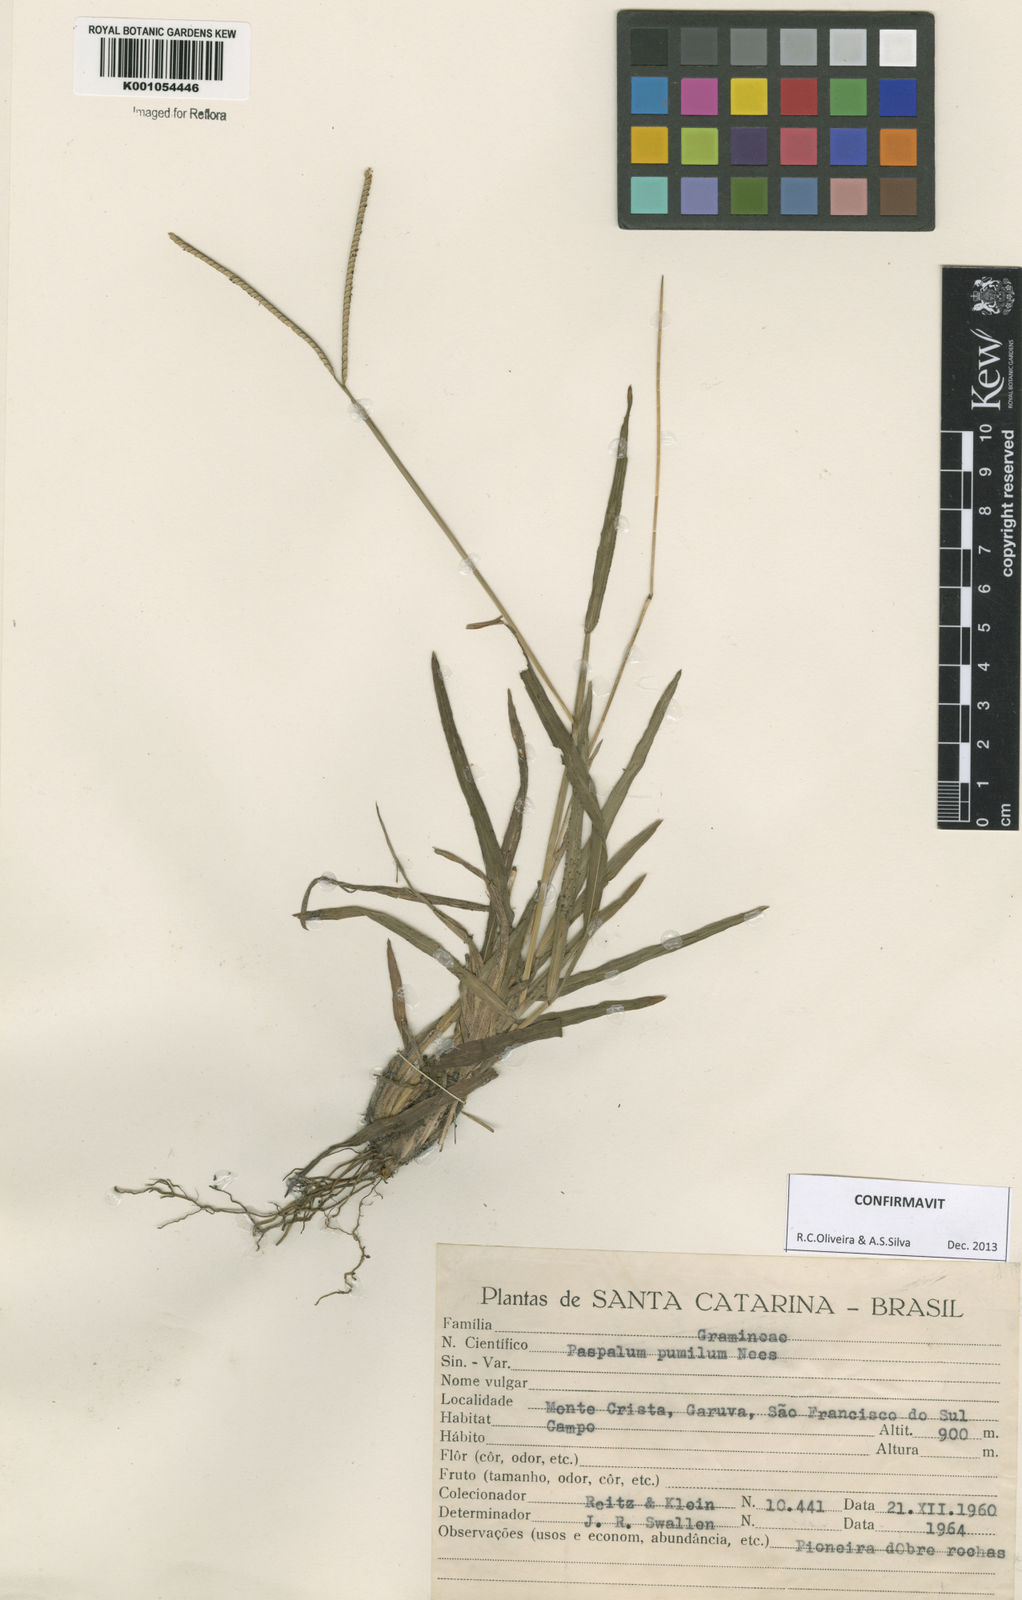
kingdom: Plantae
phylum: Tracheophyta
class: Liliopsida
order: Poales
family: Poaceae
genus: Paspalum
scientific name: Paspalum pumilum
